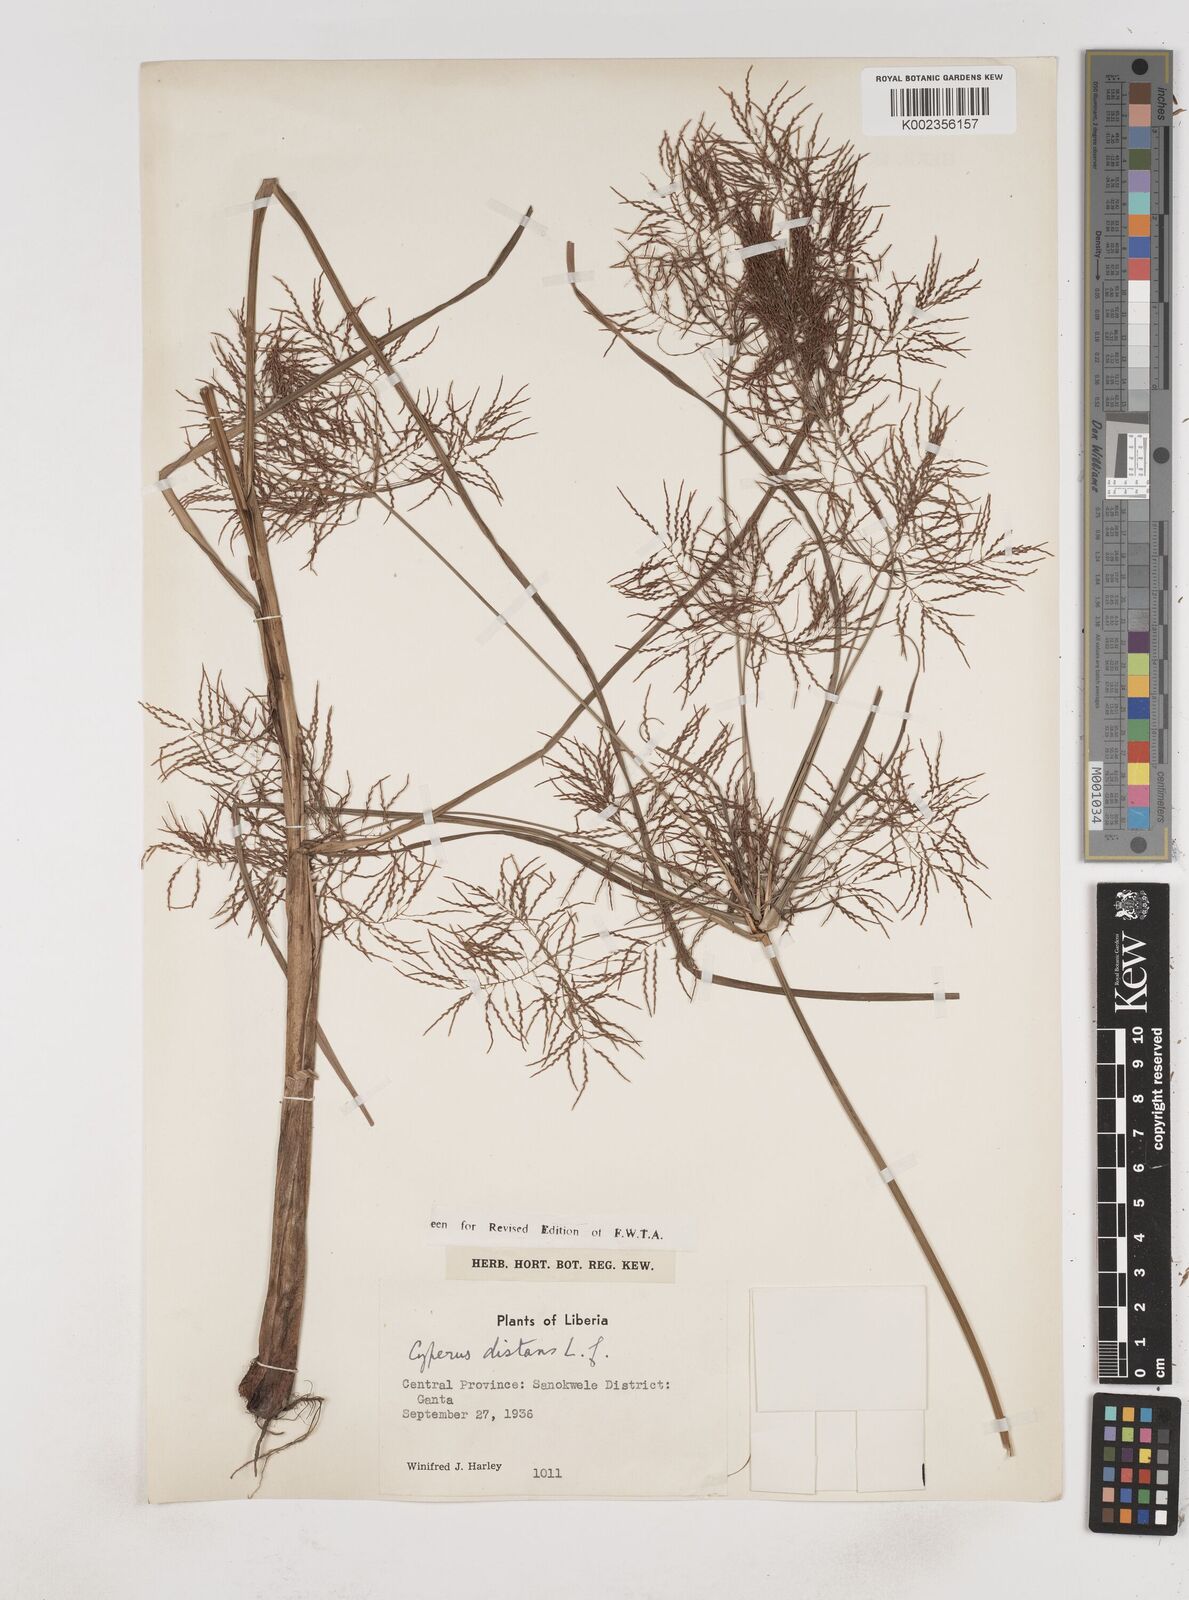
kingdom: Plantae
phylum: Tracheophyta
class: Liliopsida
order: Poales
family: Cyperaceae
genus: Cyperus
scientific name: Cyperus distans
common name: Slender cyperus
